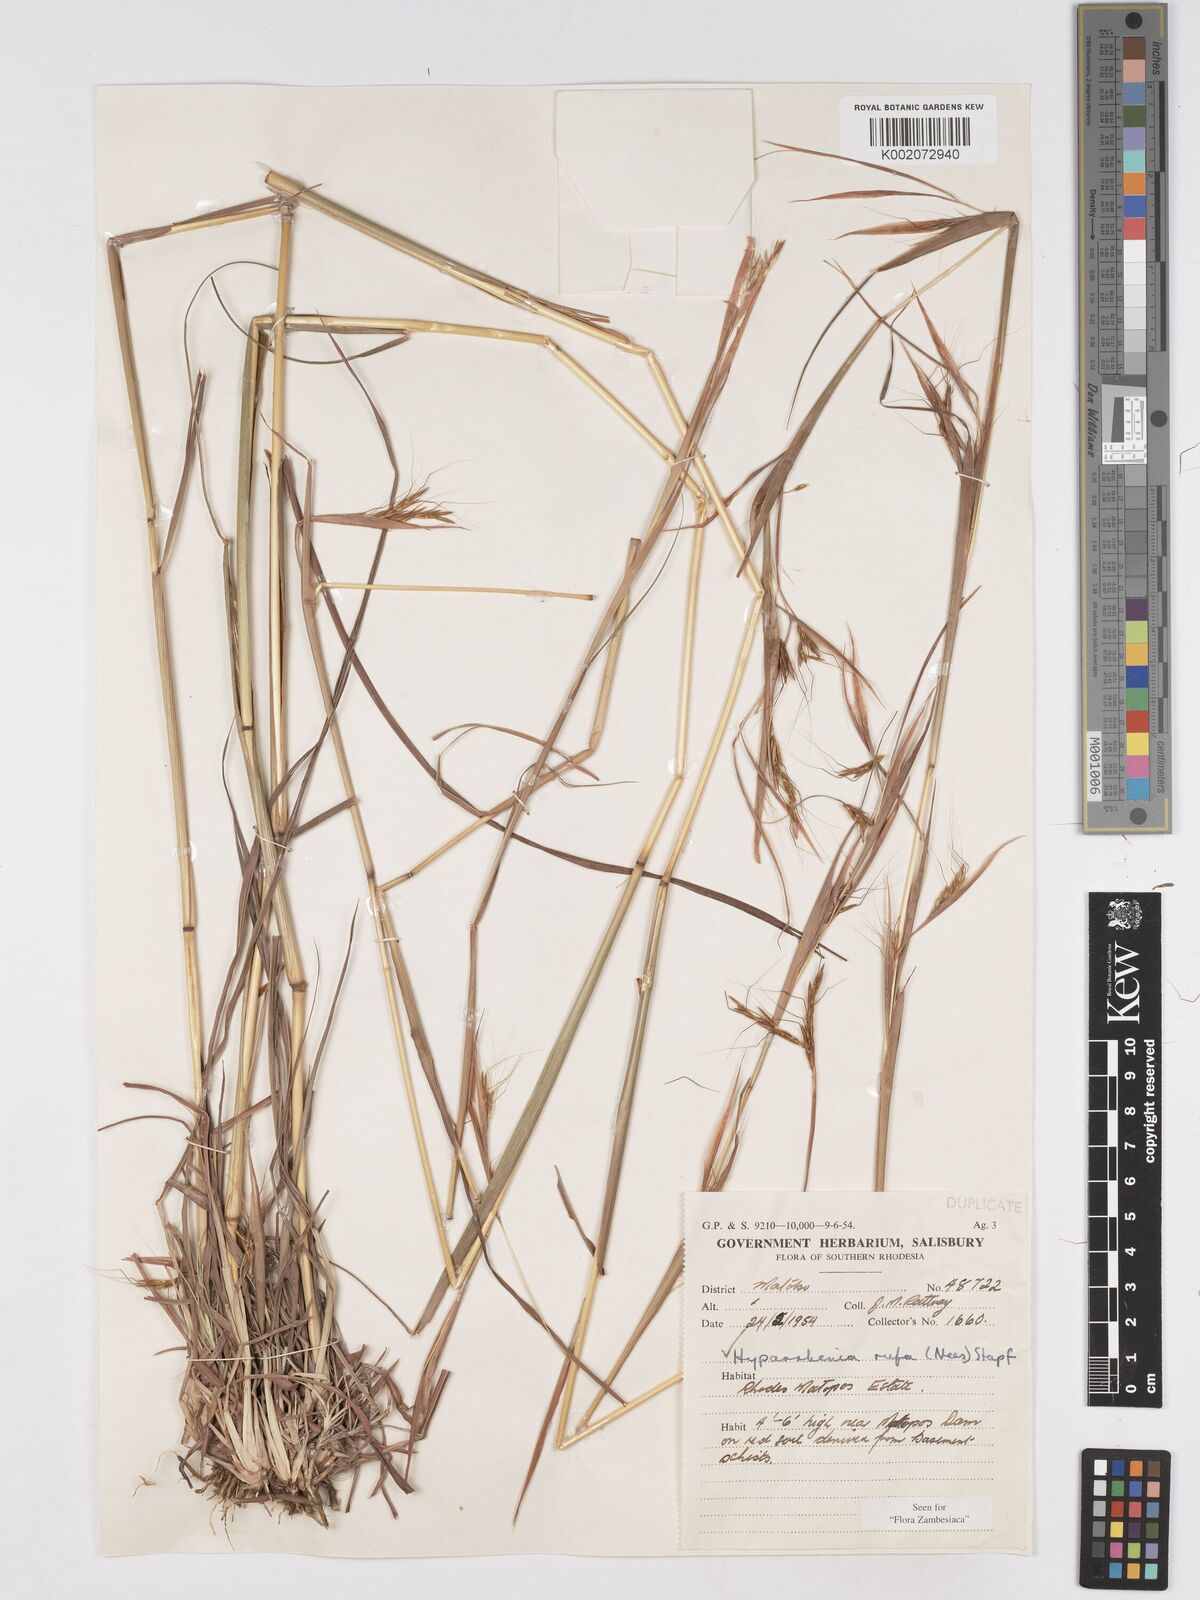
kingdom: Plantae
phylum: Tracheophyta
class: Liliopsida
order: Poales
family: Poaceae
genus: Hyparrhenia
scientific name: Hyparrhenia rufa
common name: Jaraguagrass
